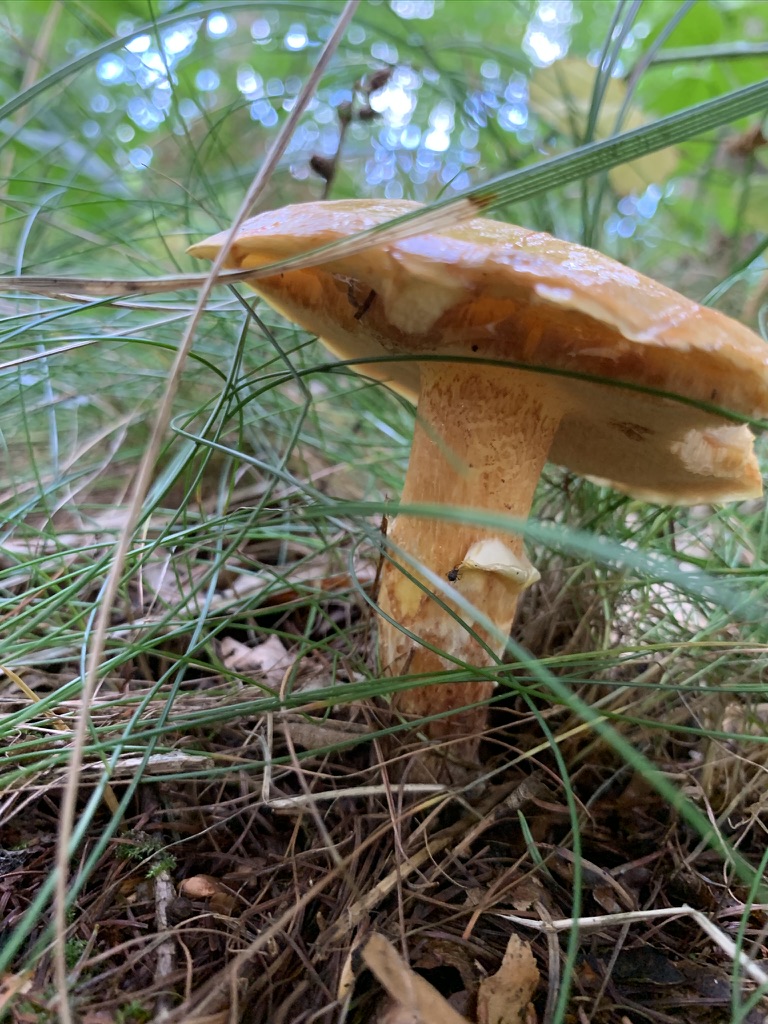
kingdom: Fungi
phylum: Basidiomycota
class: Agaricomycetes
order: Boletales
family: Suillaceae
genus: Suillus
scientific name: Suillus grevillei
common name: lærke-slimrørhat
